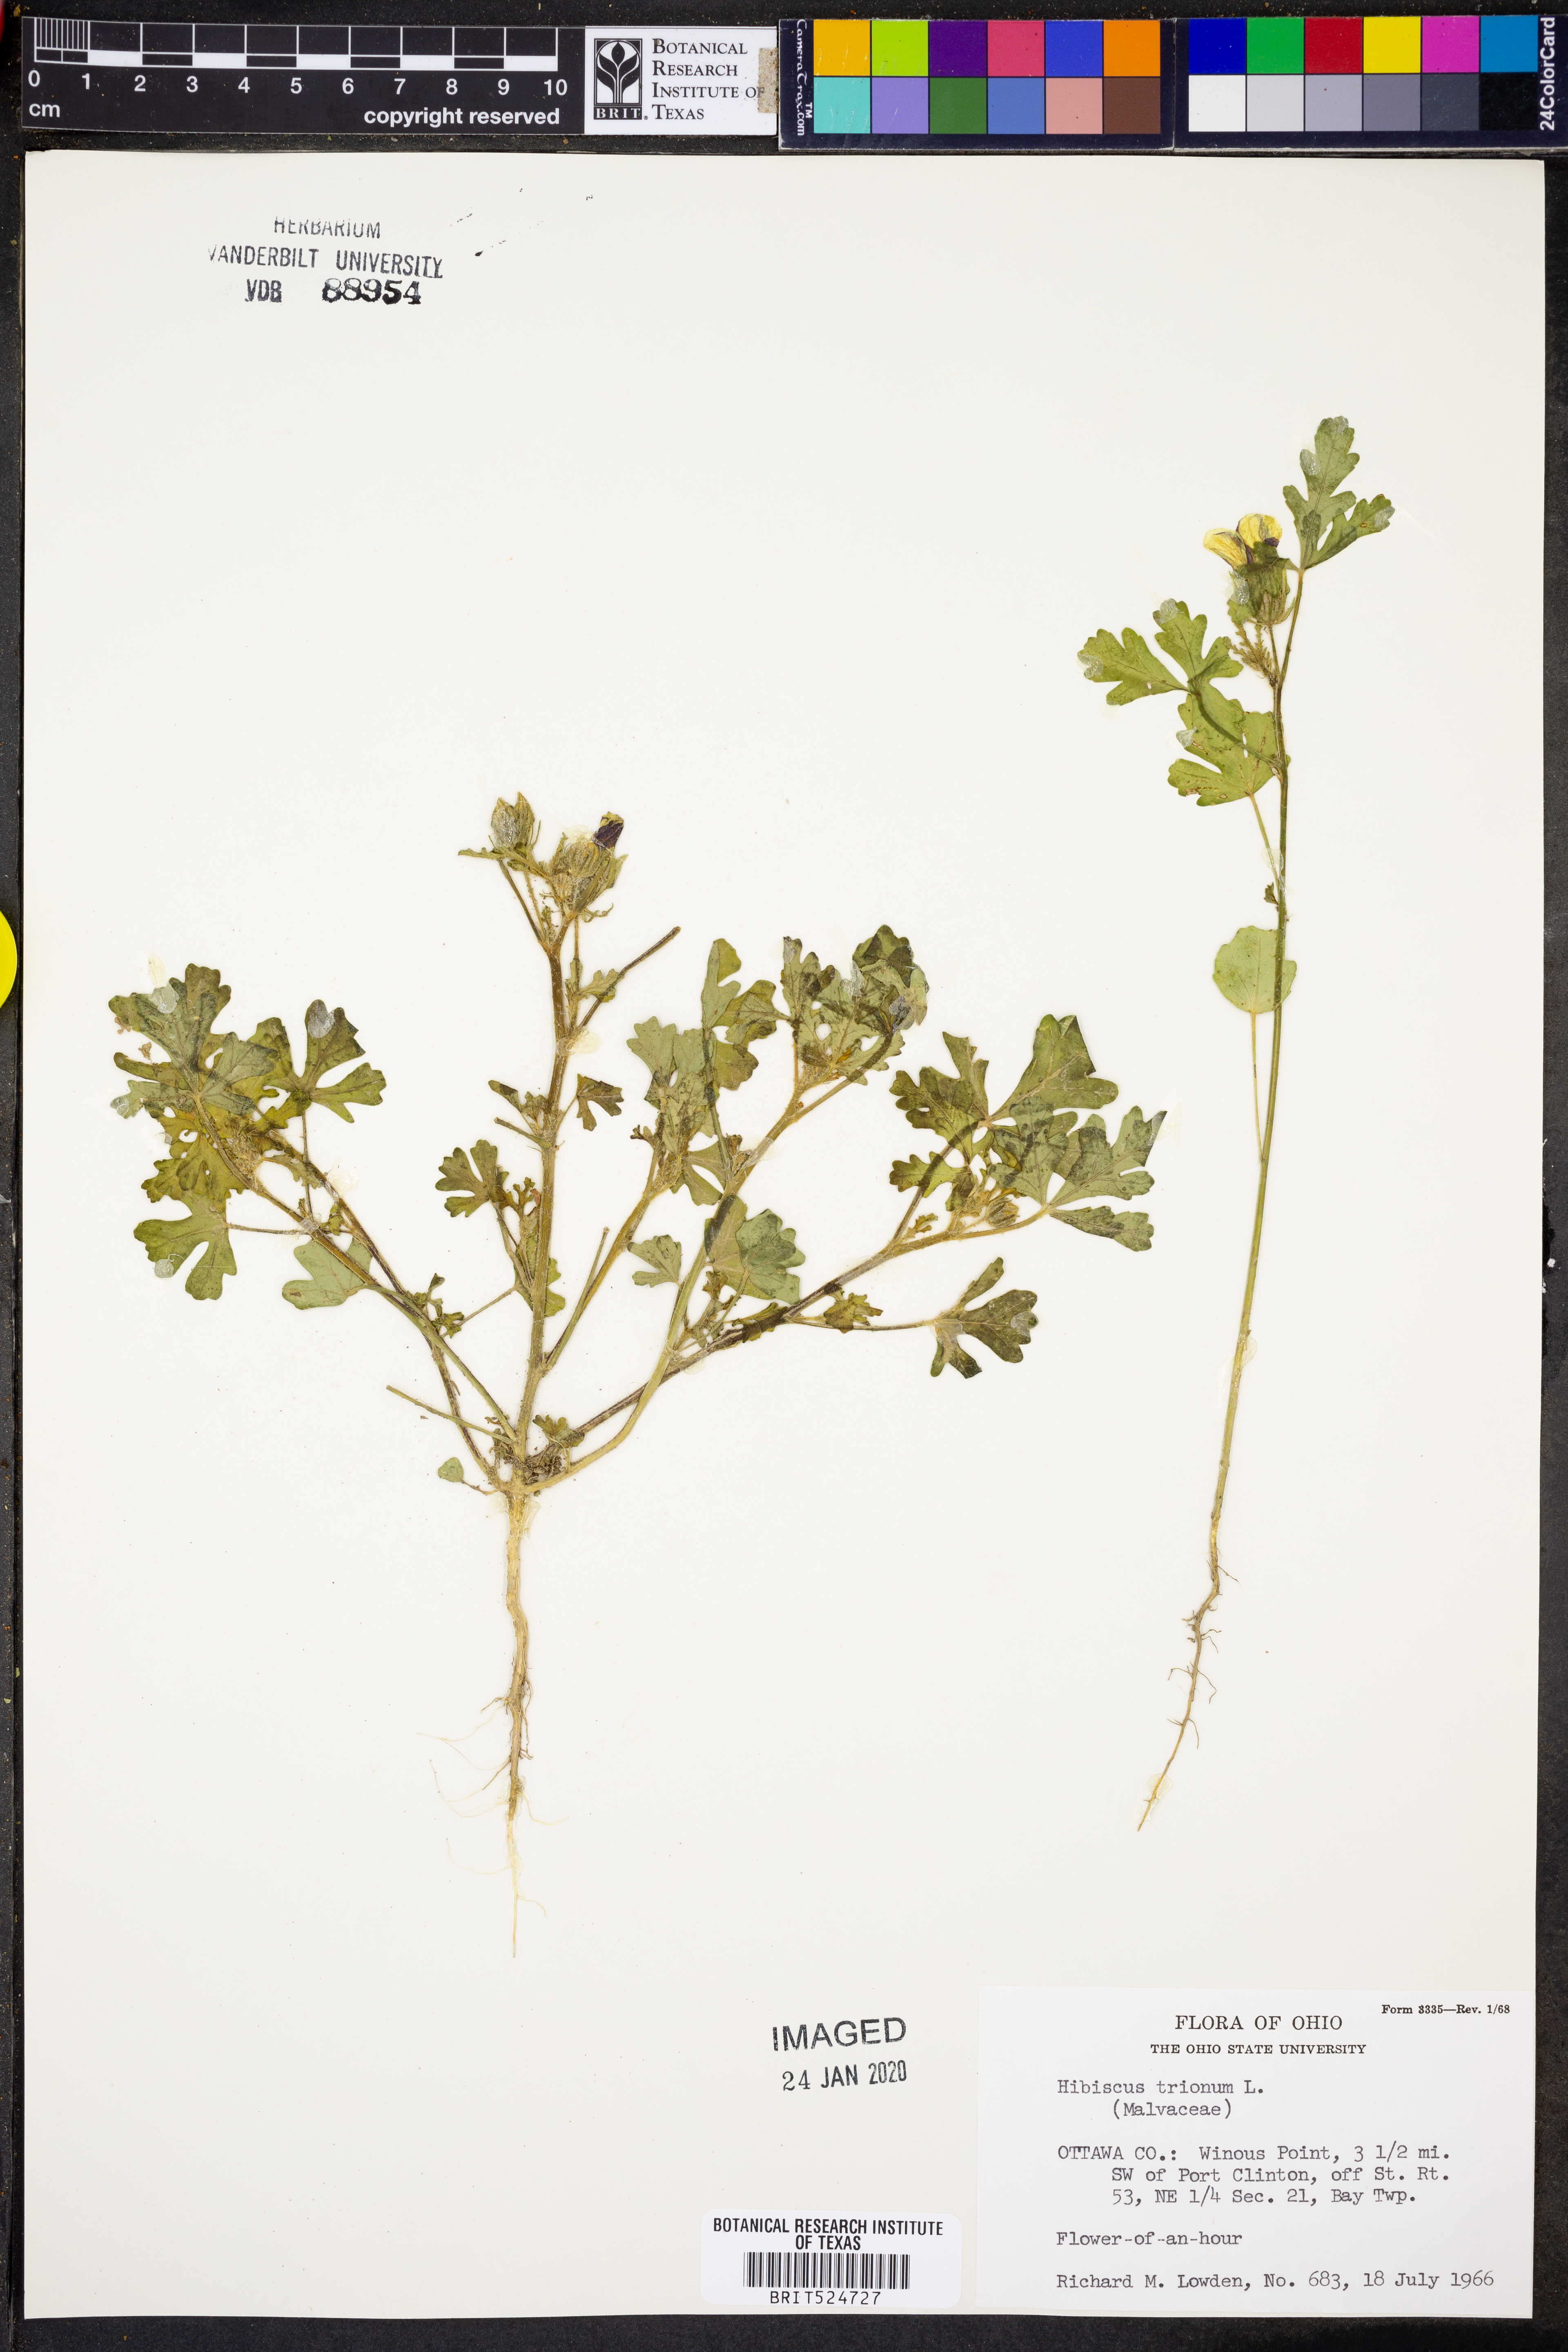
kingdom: Plantae
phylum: Tracheophyta
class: Magnoliopsida
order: Malvales
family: Malvaceae
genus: Hibiscus
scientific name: Hibiscus trionum
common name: Bladder ketmia
